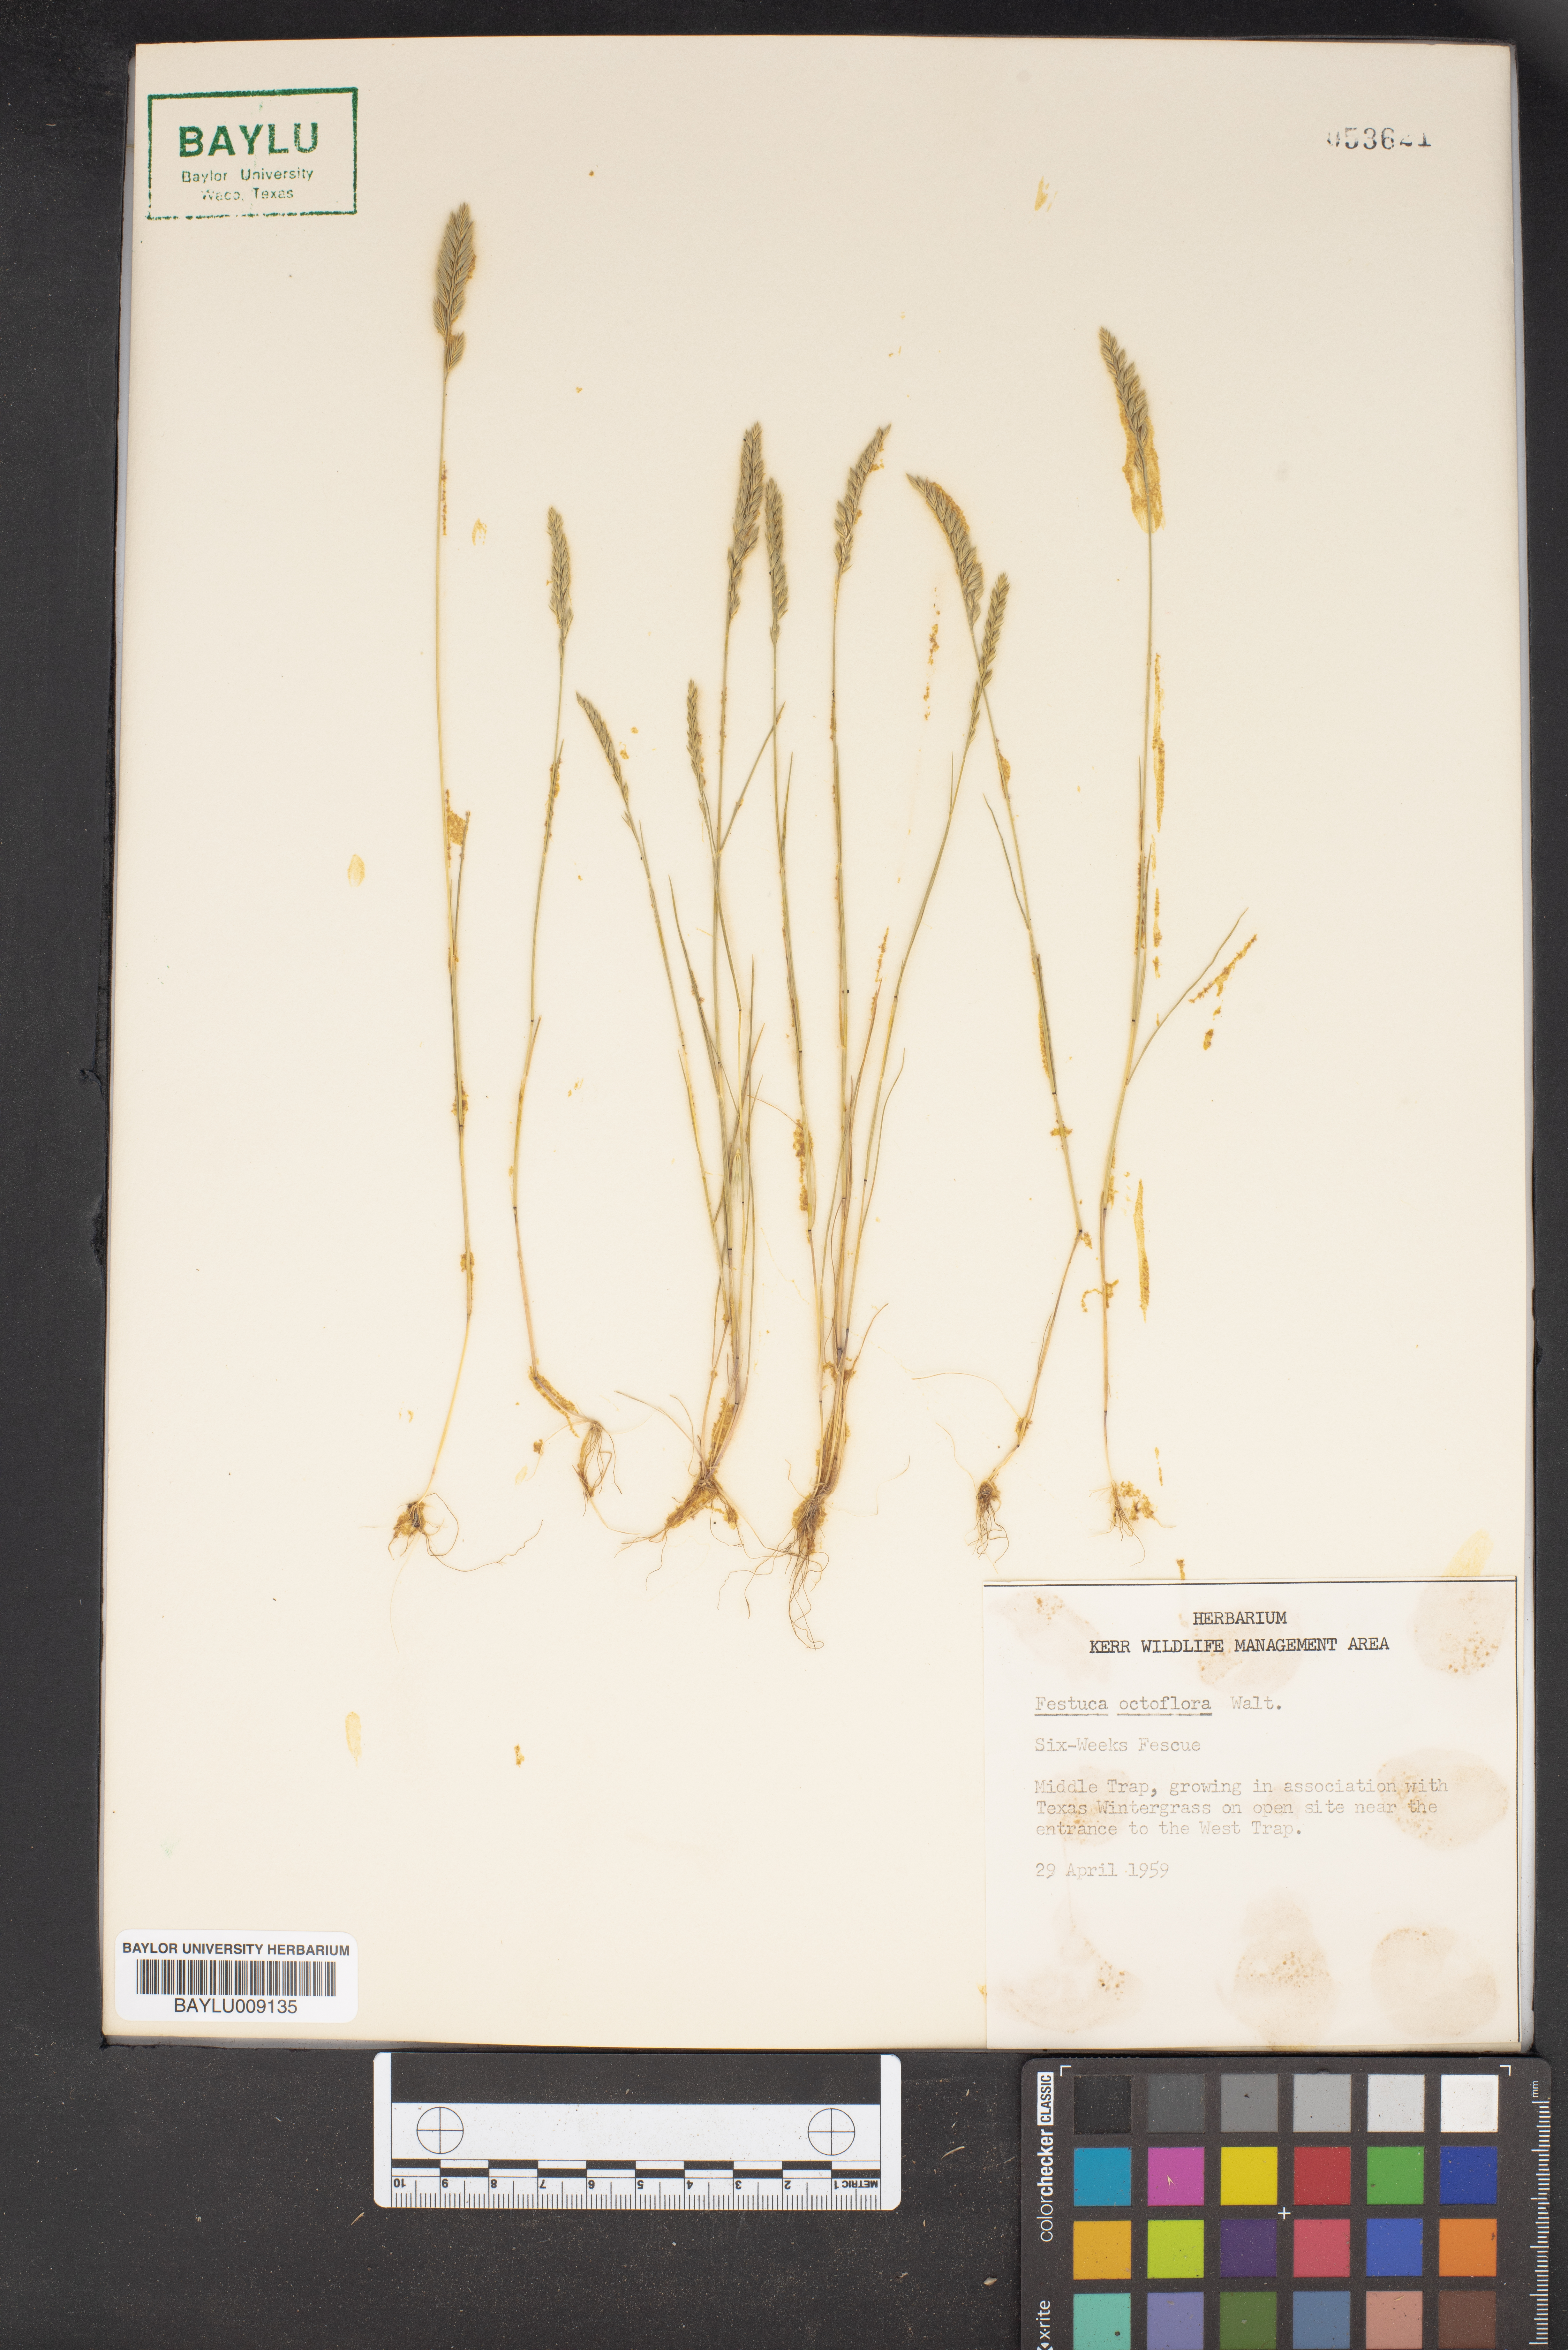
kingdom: Plantae
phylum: Tracheophyta
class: Liliopsida
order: Poales
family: Poaceae
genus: Festuca
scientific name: Festuca octoflora
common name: Sixweeks grass
